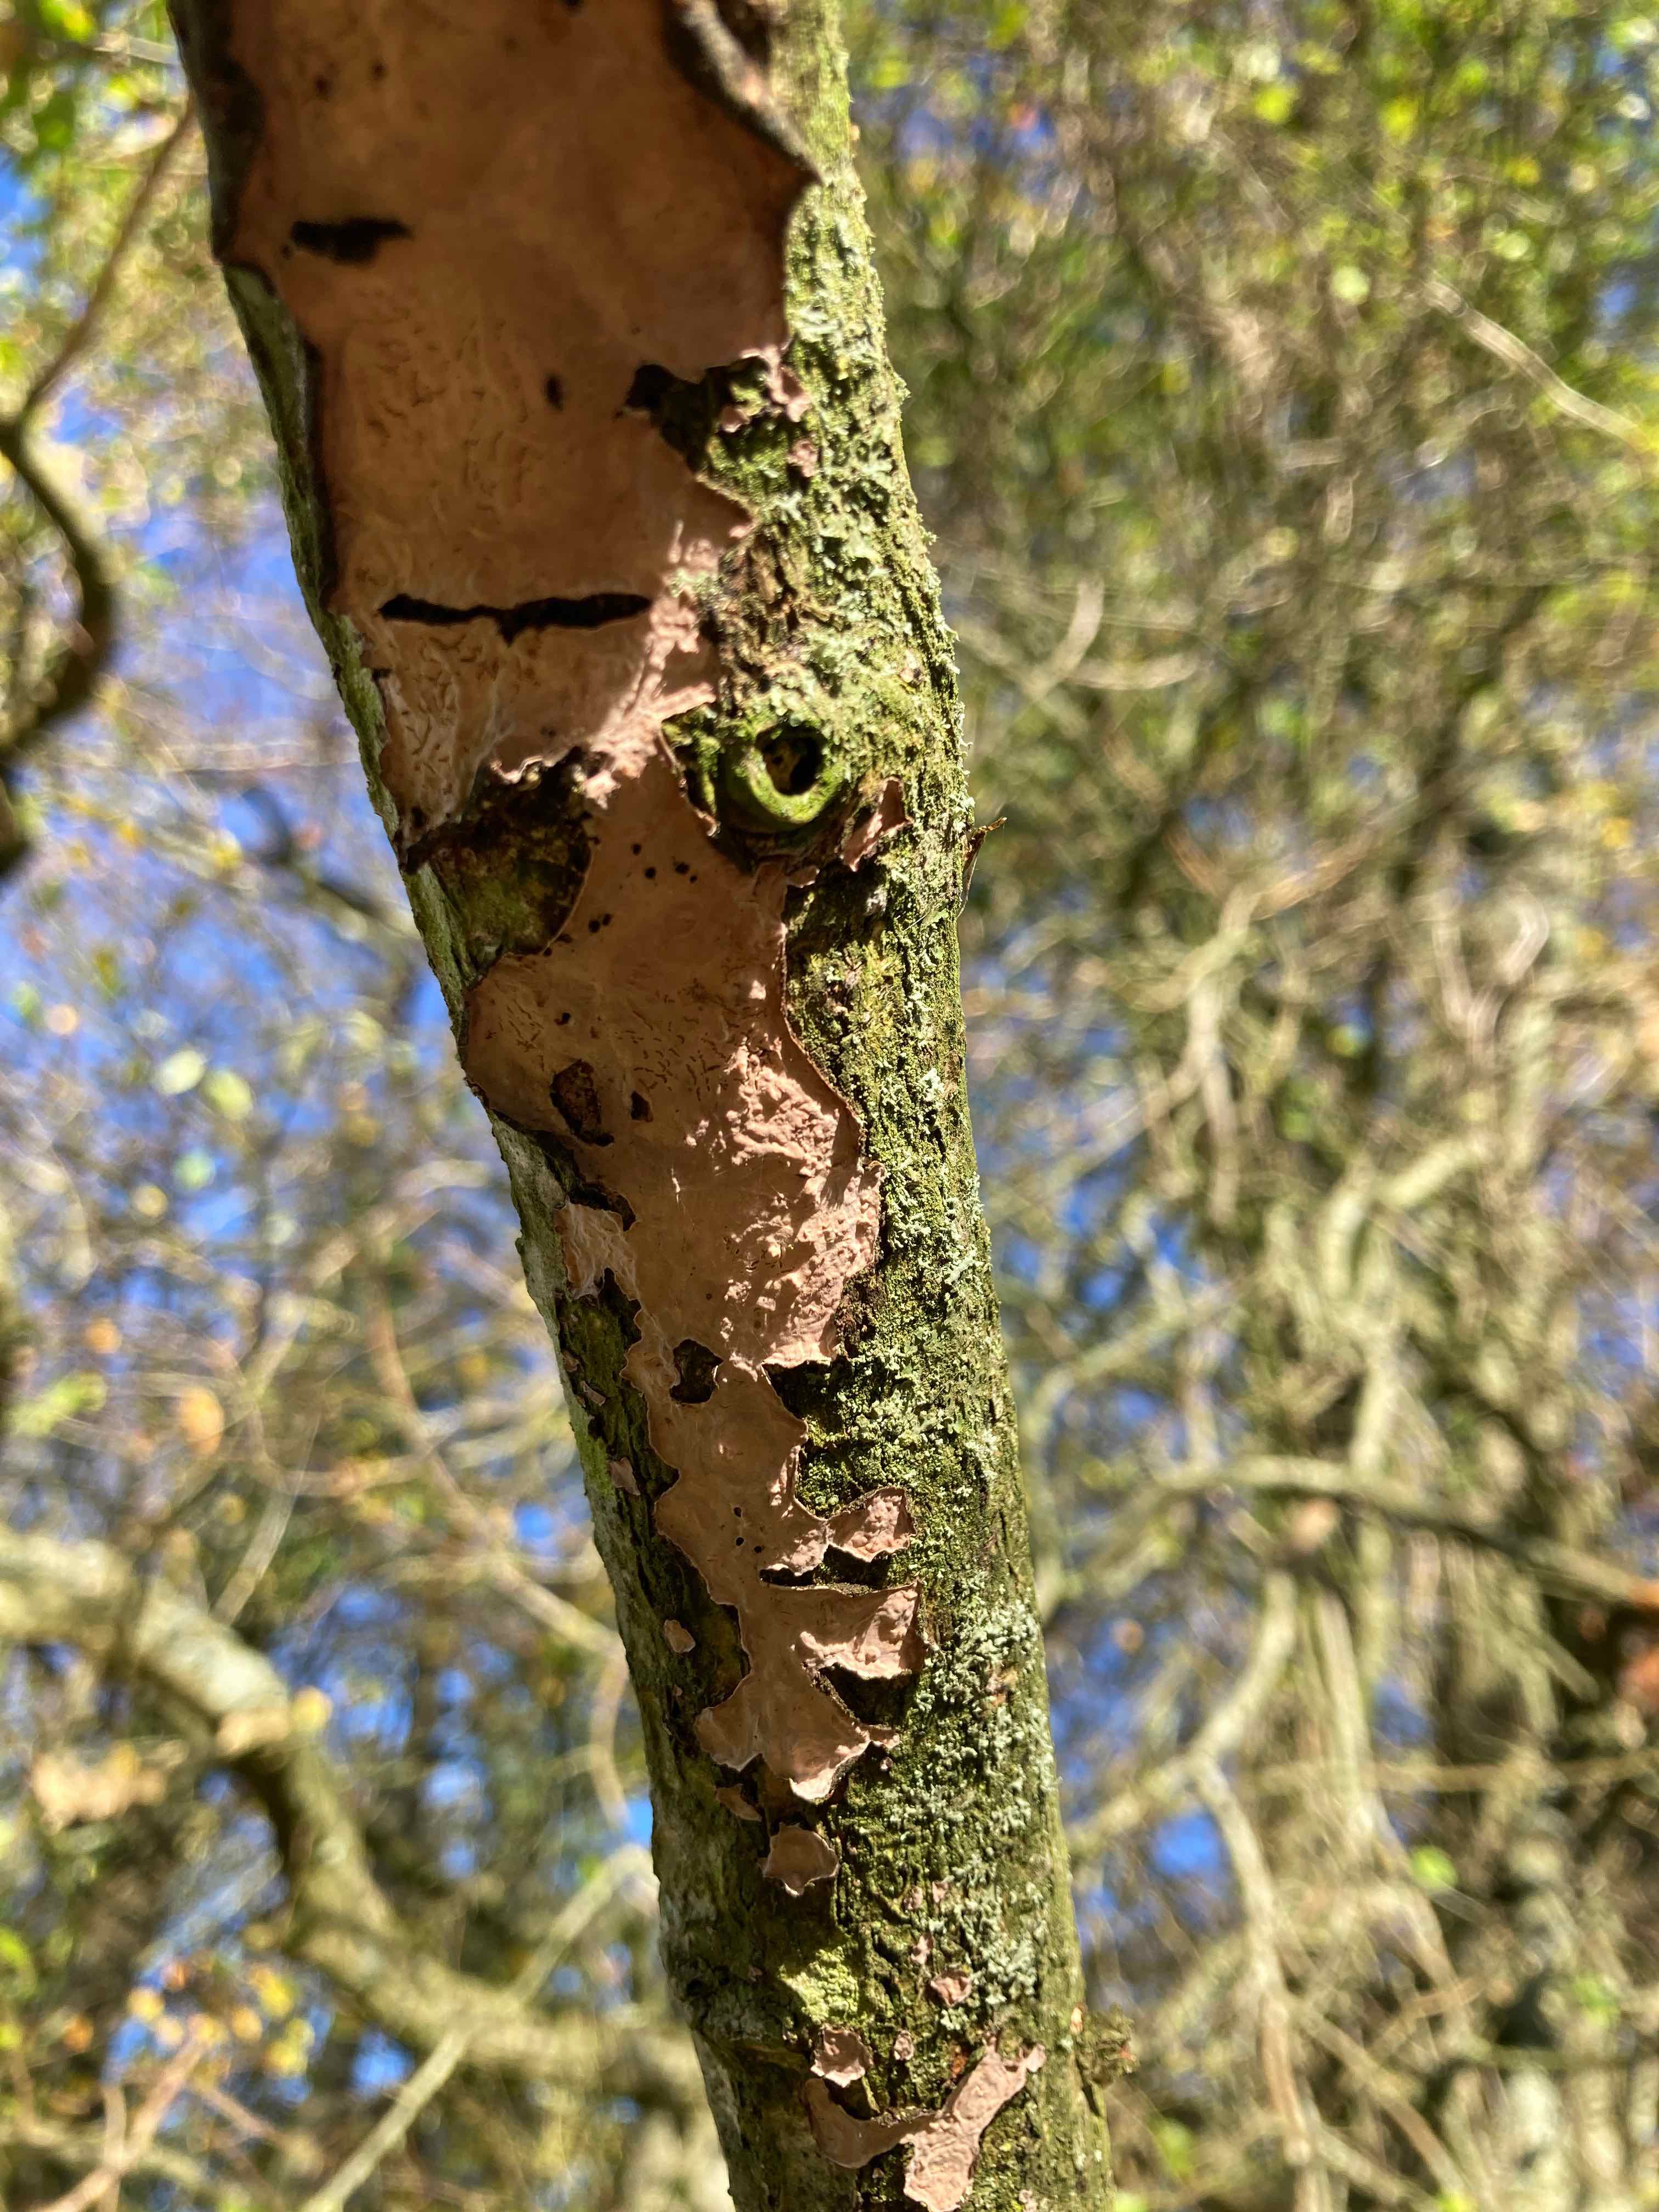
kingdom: Fungi
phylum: Basidiomycota
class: Agaricomycetes
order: Russulales
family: Peniophoraceae
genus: Peniophora
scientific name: Peniophora quercina
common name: ege-voksskind
